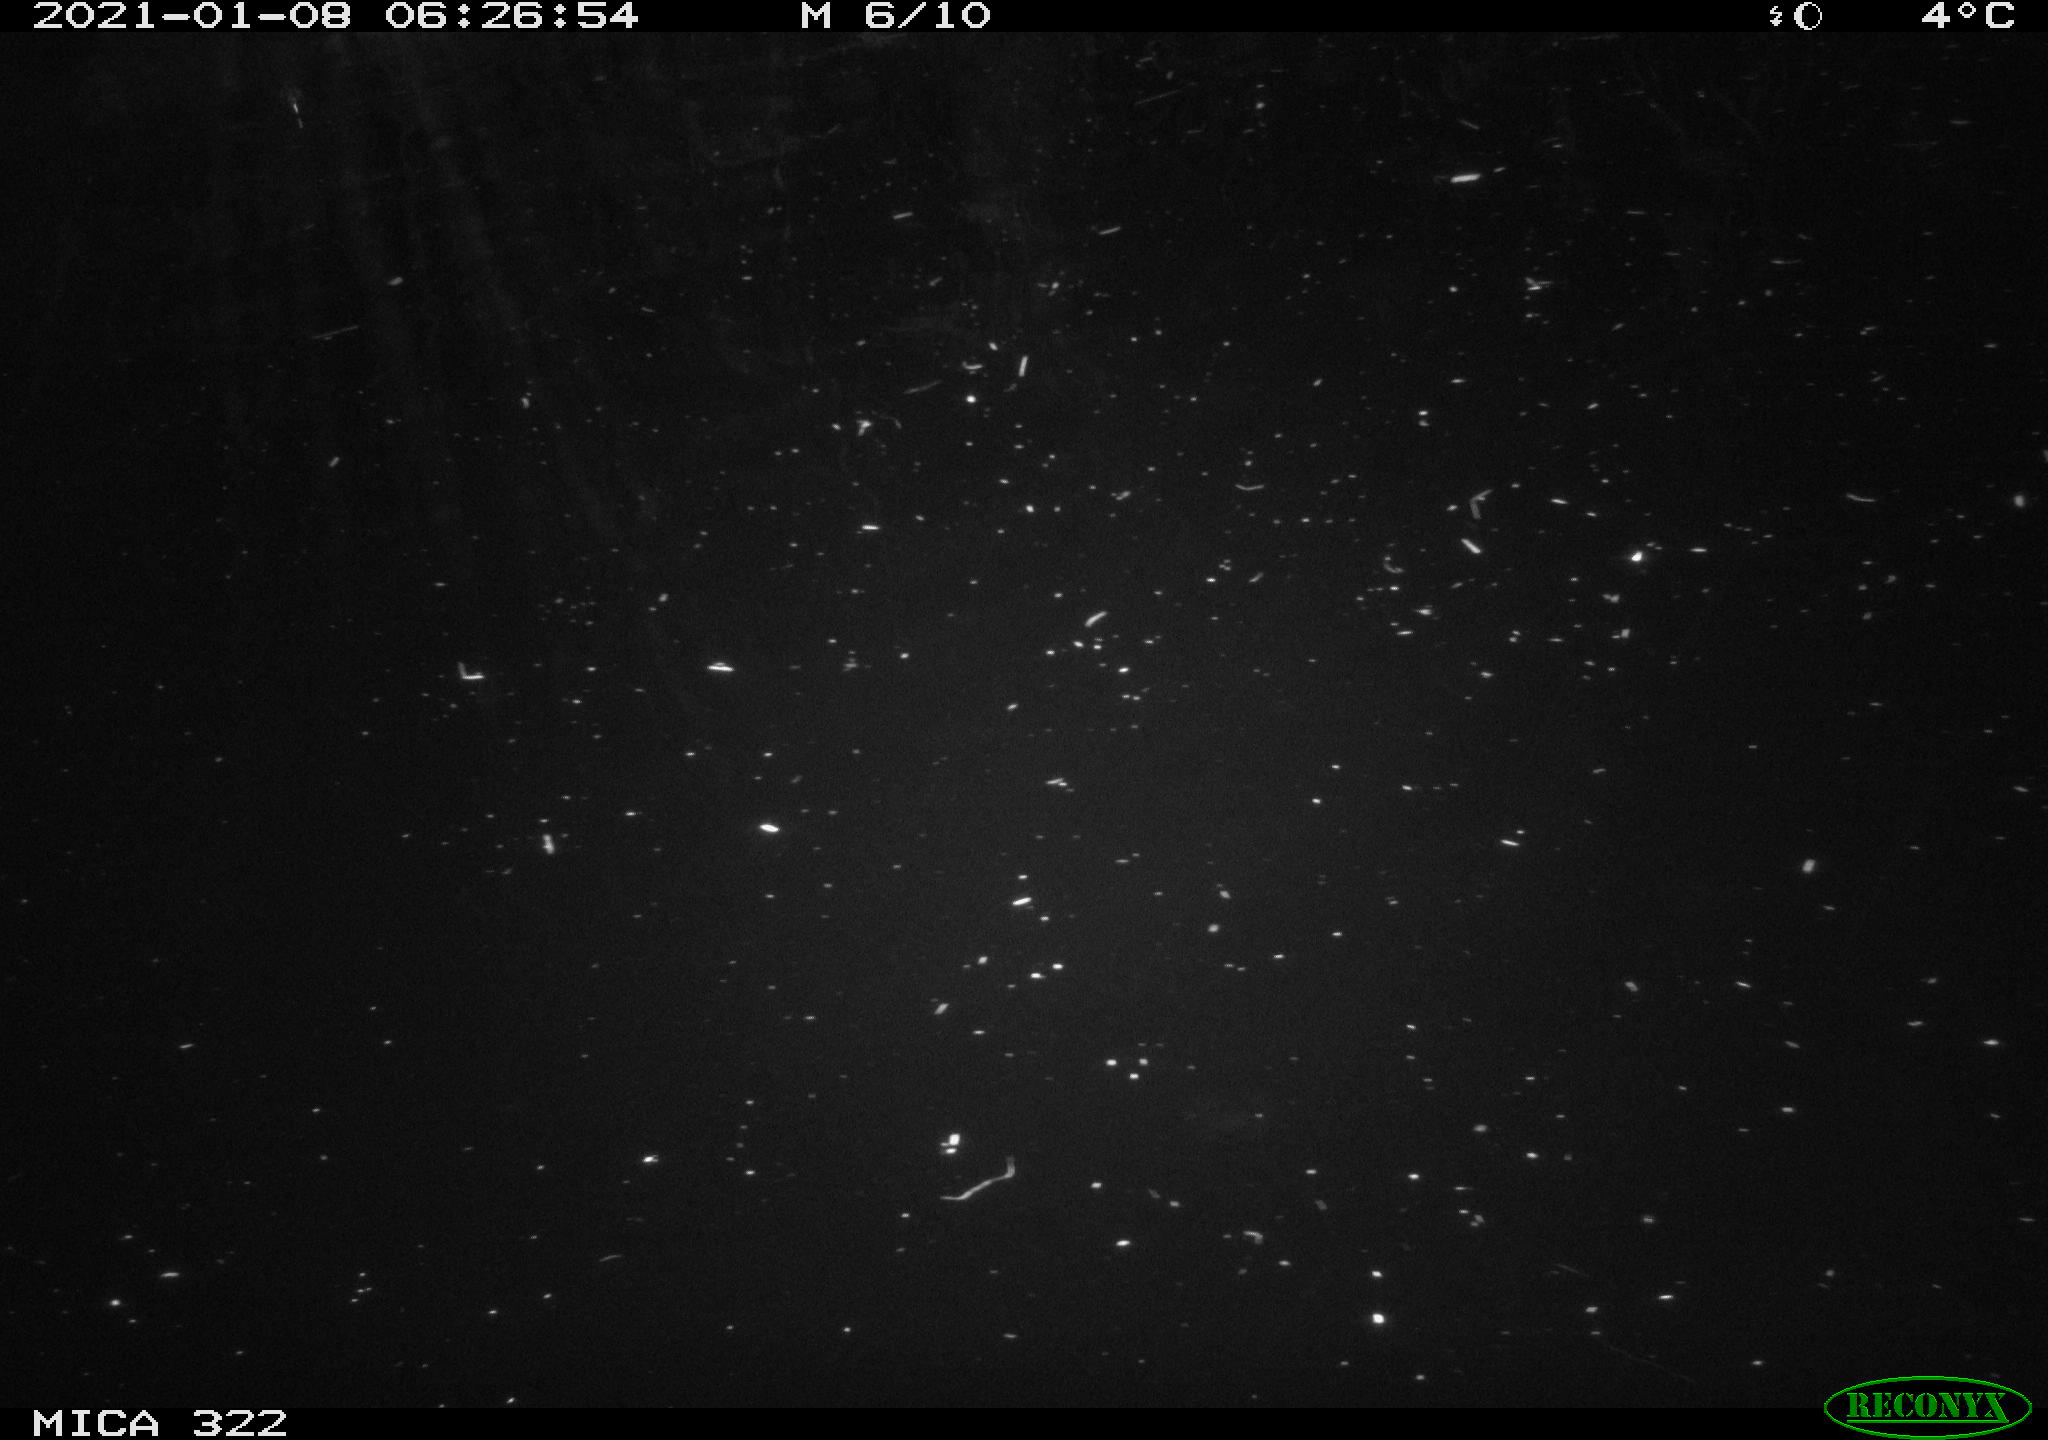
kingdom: Animalia
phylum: Chordata
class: Mammalia
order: Rodentia
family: Muridae
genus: Rattus
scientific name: Rattus norvegicus
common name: Brown rat
